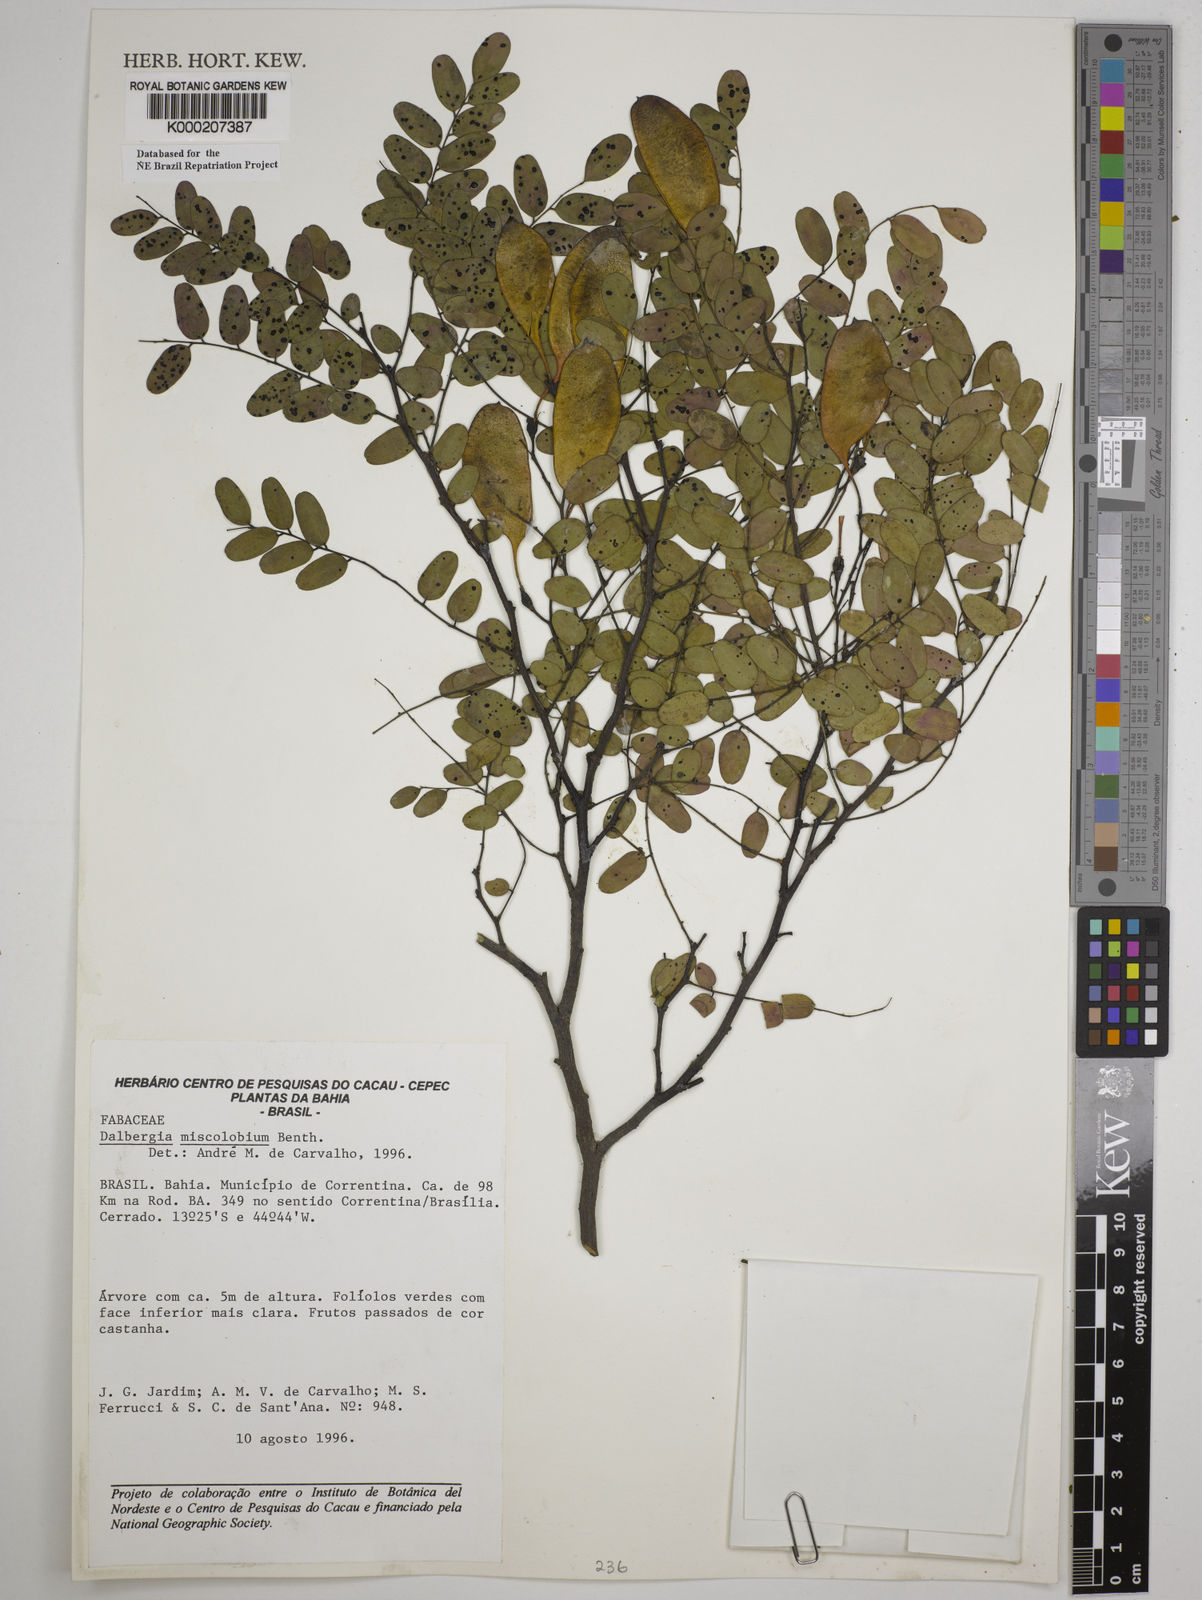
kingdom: Plantae
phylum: Tracheophyta
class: Magnoliopsida
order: Fabales
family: Fabaceae
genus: Dalbergia
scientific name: Dalbergia miscolobium
